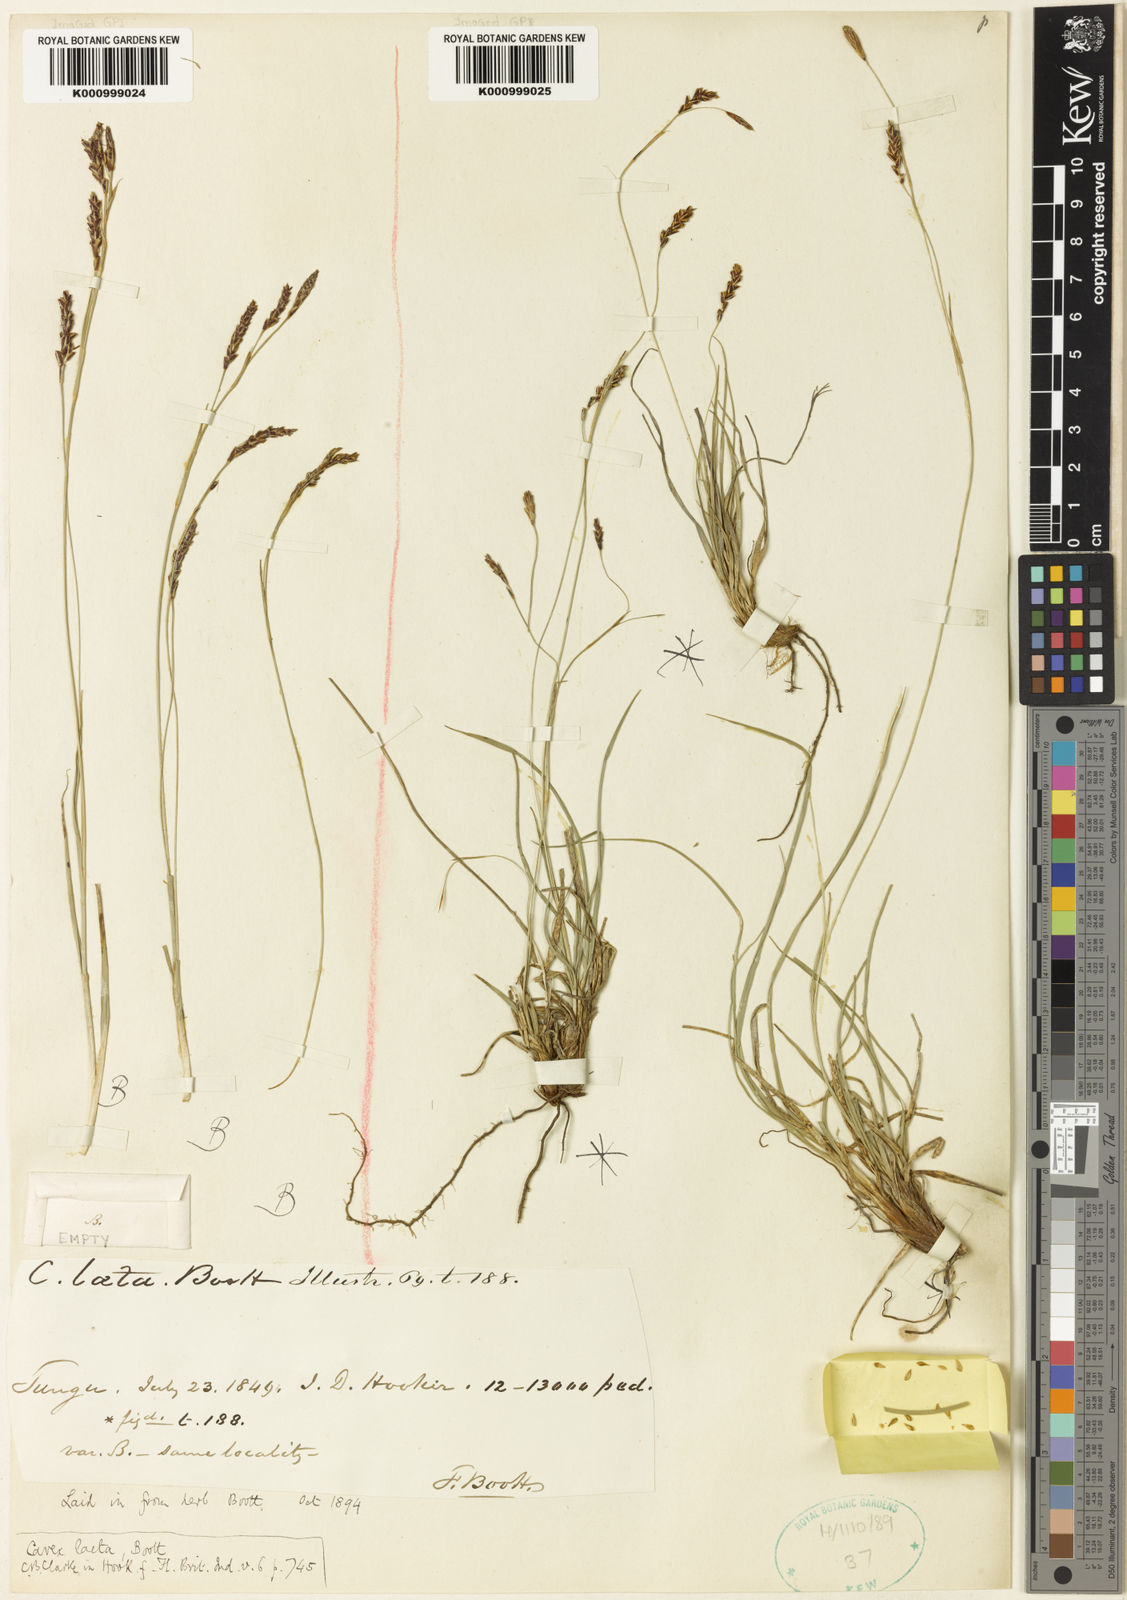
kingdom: Plantae
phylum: Tracheophyta
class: Liliopsida
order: Poales
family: Cyperaceae
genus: Carex
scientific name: Carex laeta
